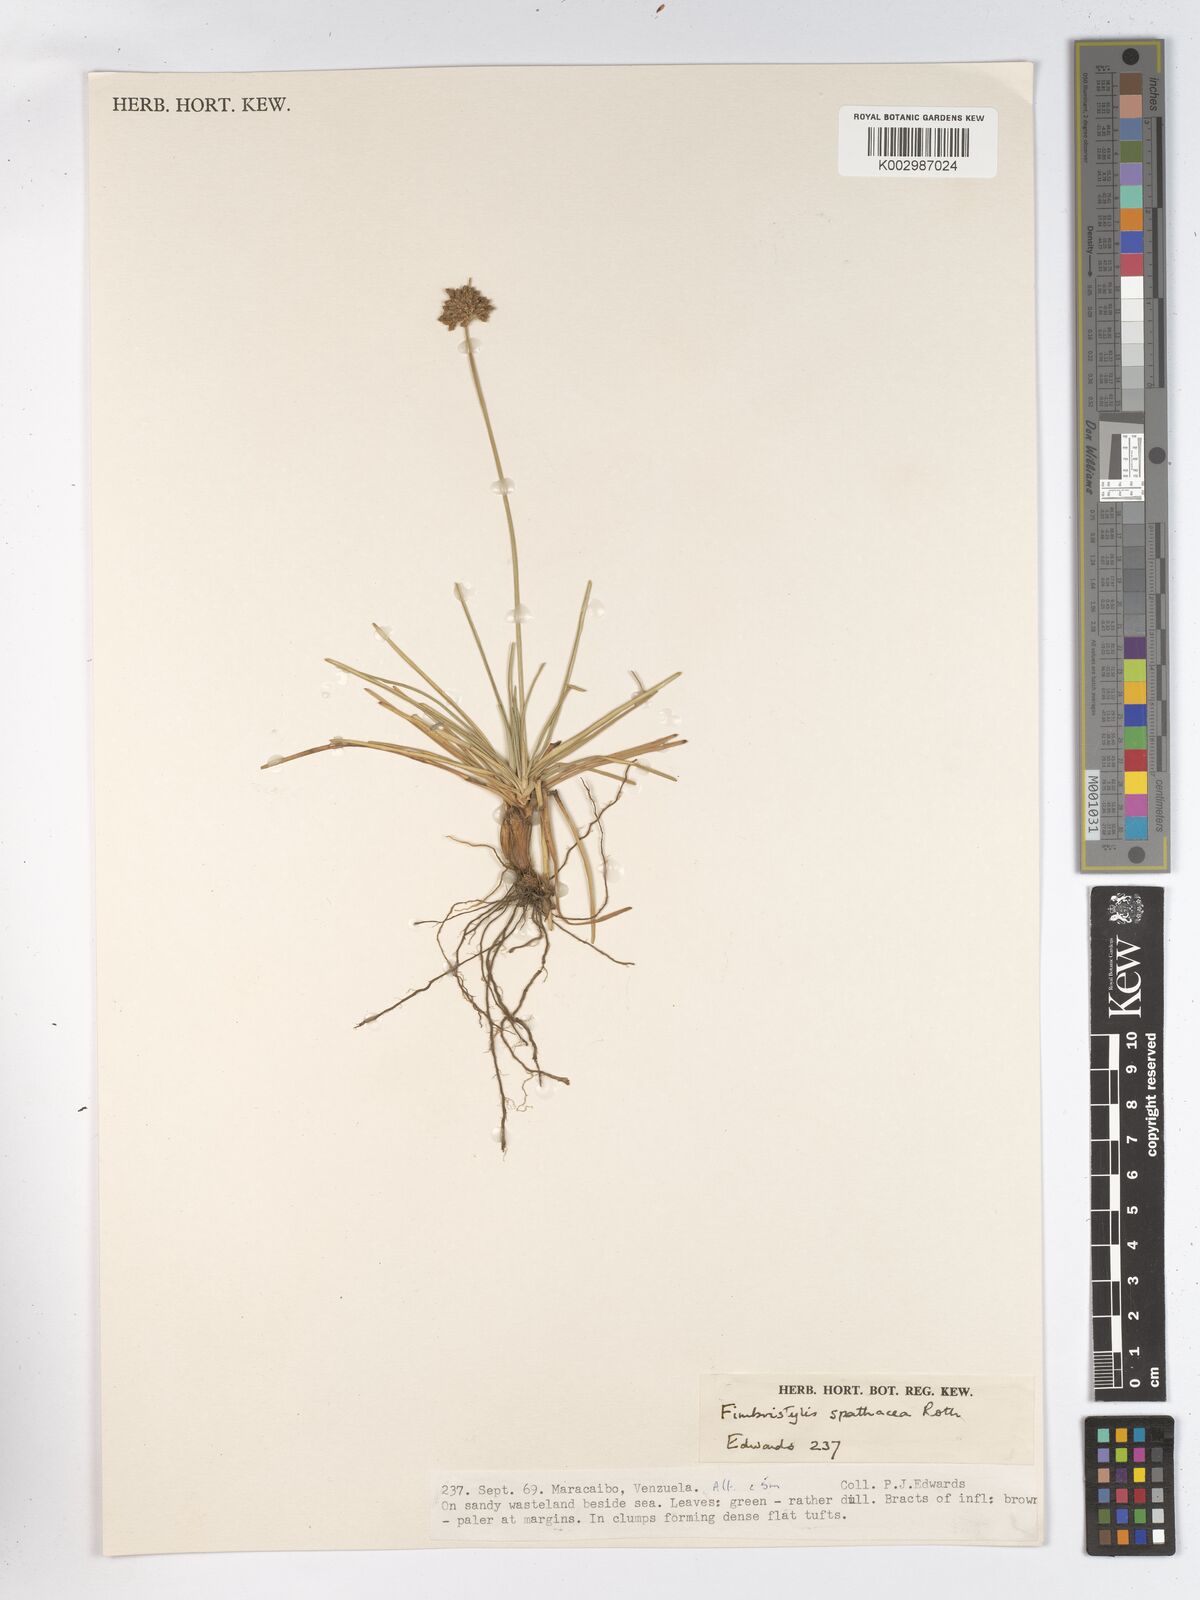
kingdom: Plantae
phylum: Tracheophyta
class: Liliopsida
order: Poales
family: Cyperaceae
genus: Fimbristylis
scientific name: Fimbristylis cymosa
